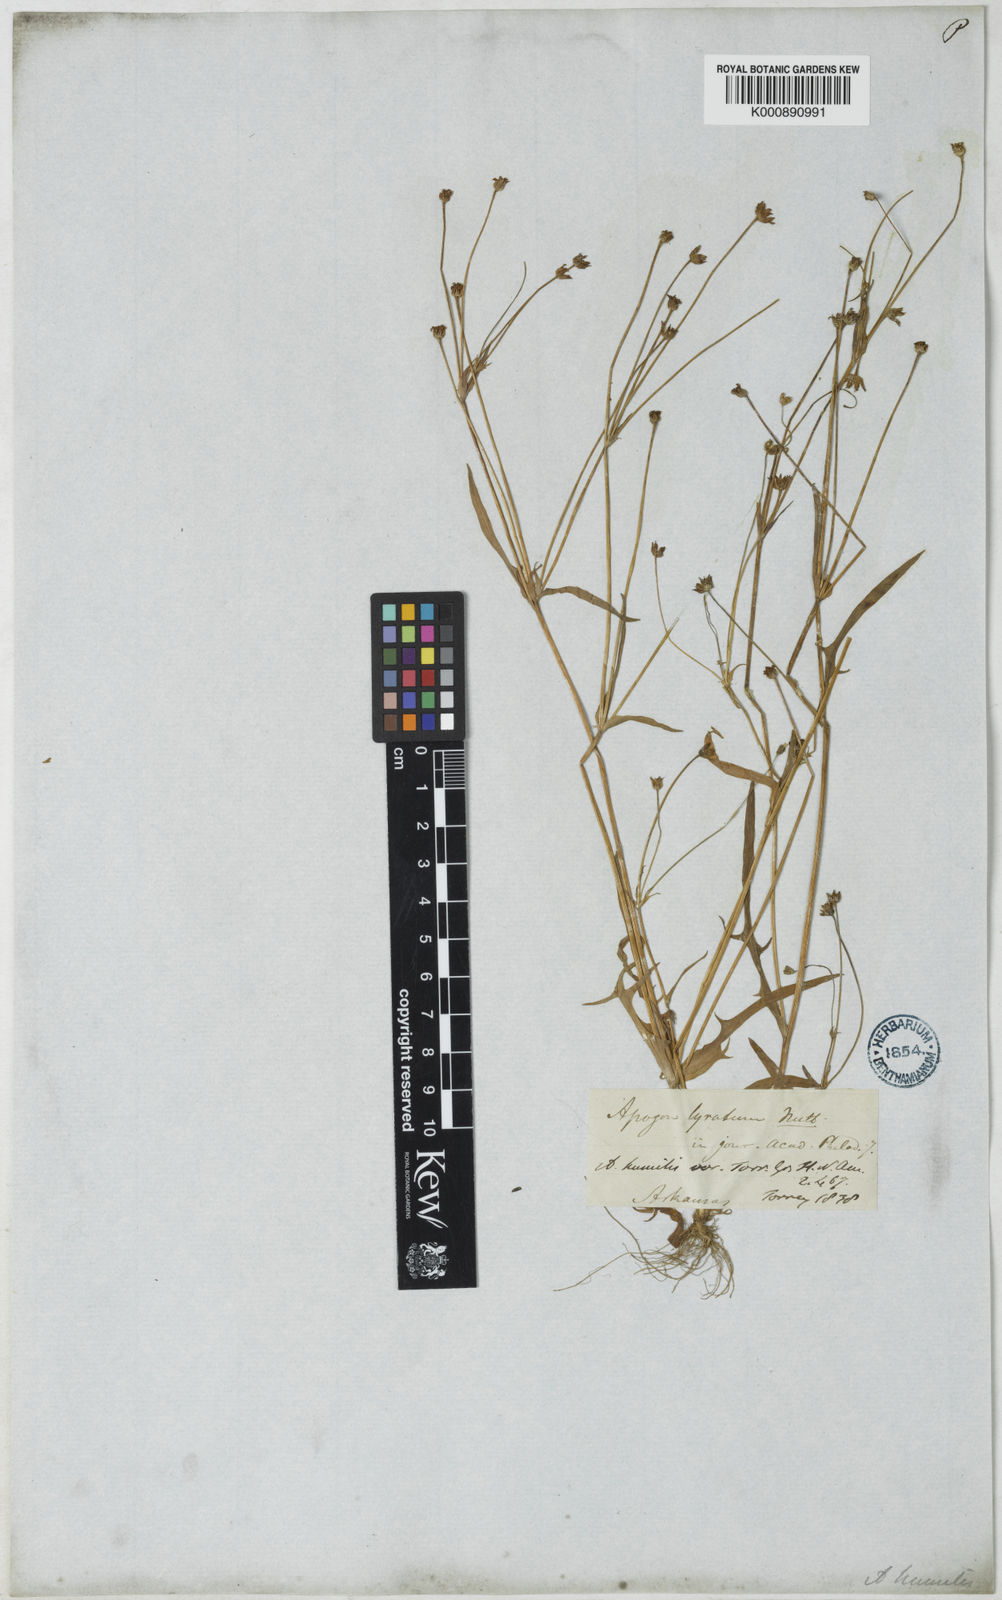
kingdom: Plantae
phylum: Tracheophyta
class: Magnoliopsida
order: Asterales
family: Asteraceae
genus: Krigia
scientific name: Krigia cespitosa
